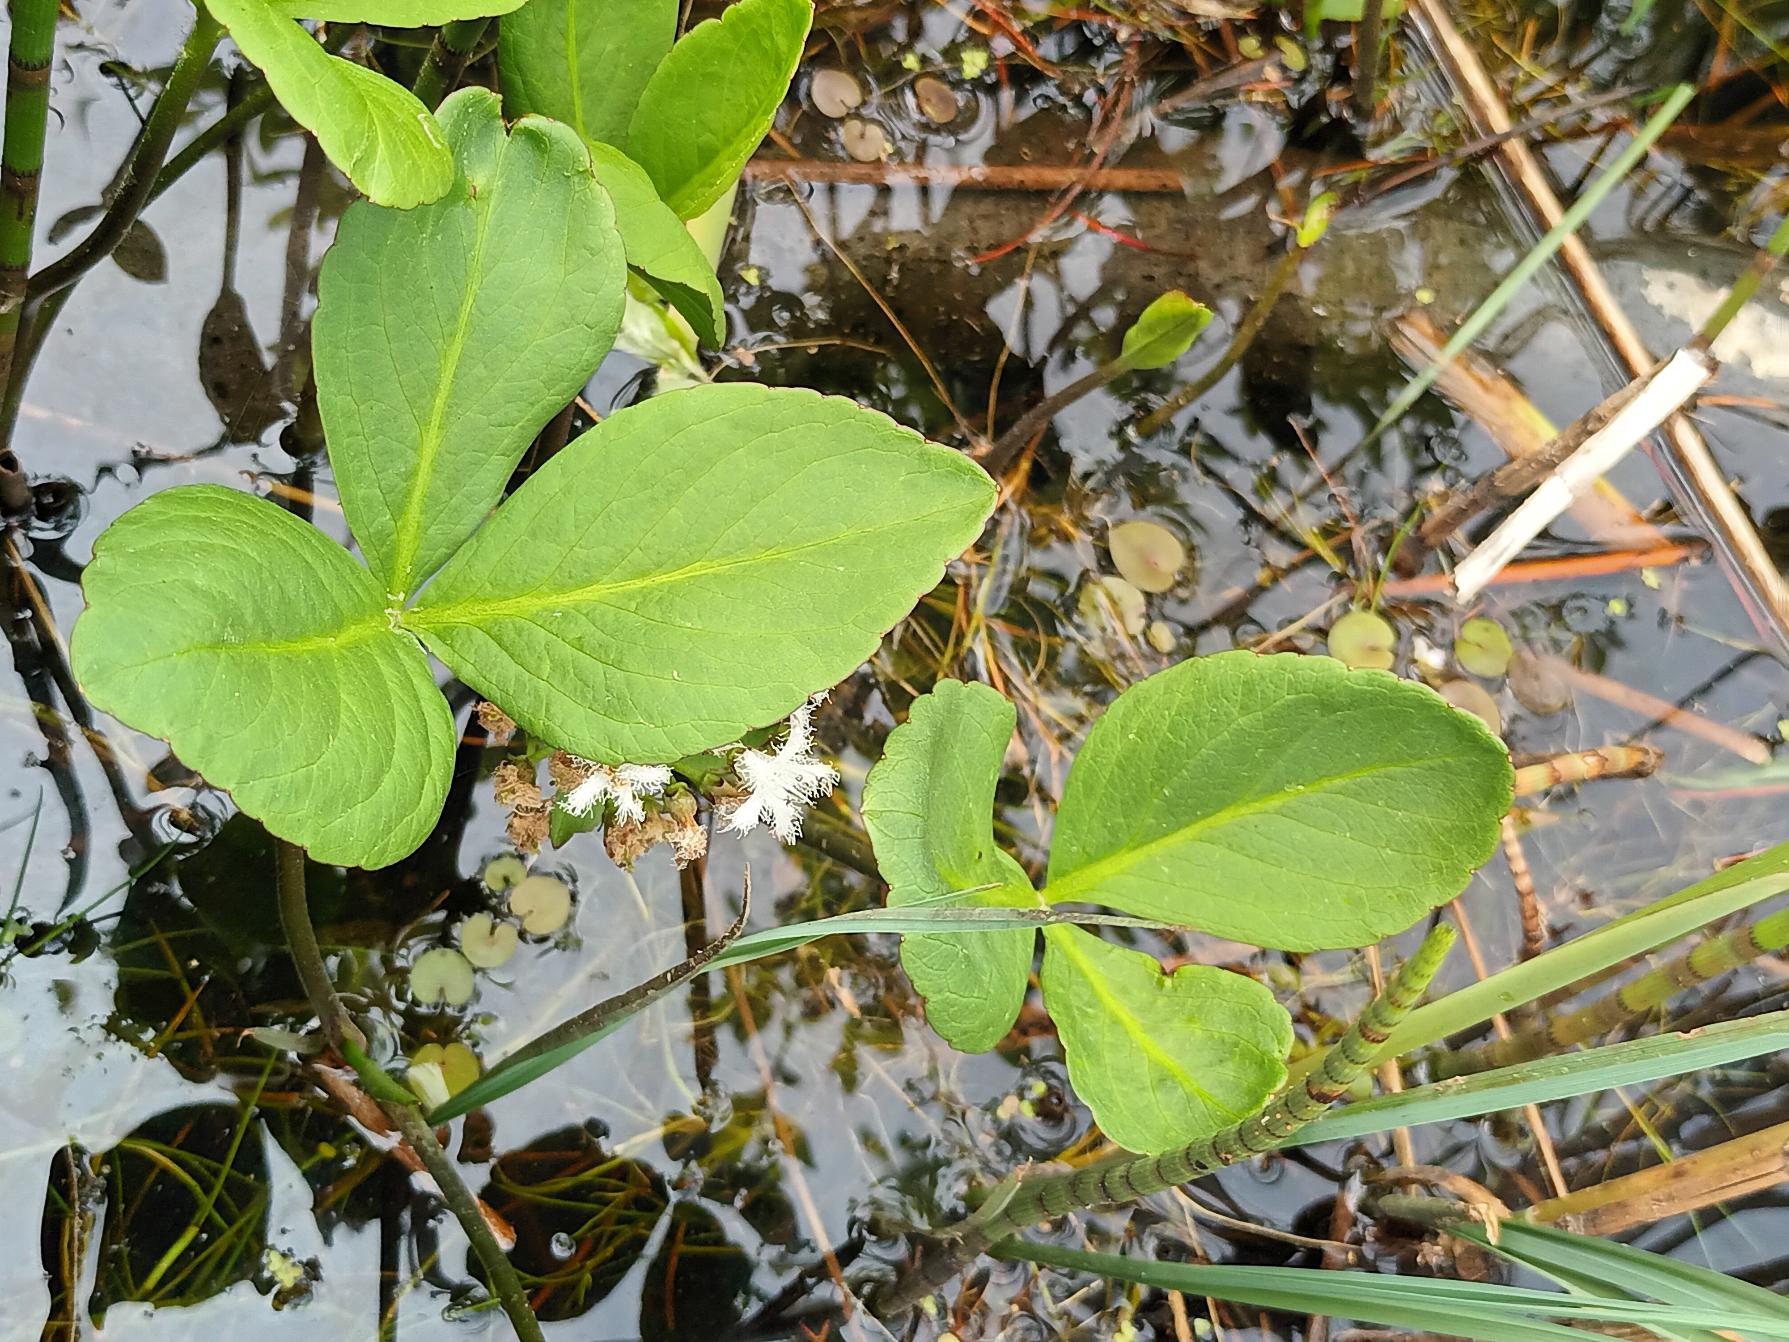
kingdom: Plantae
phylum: Tracheophyta
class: Magnoliopsida
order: Asterales
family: Menyanthaceae
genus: Menyanthes
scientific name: Menyanthes trifoliata
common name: Bukkeblad
